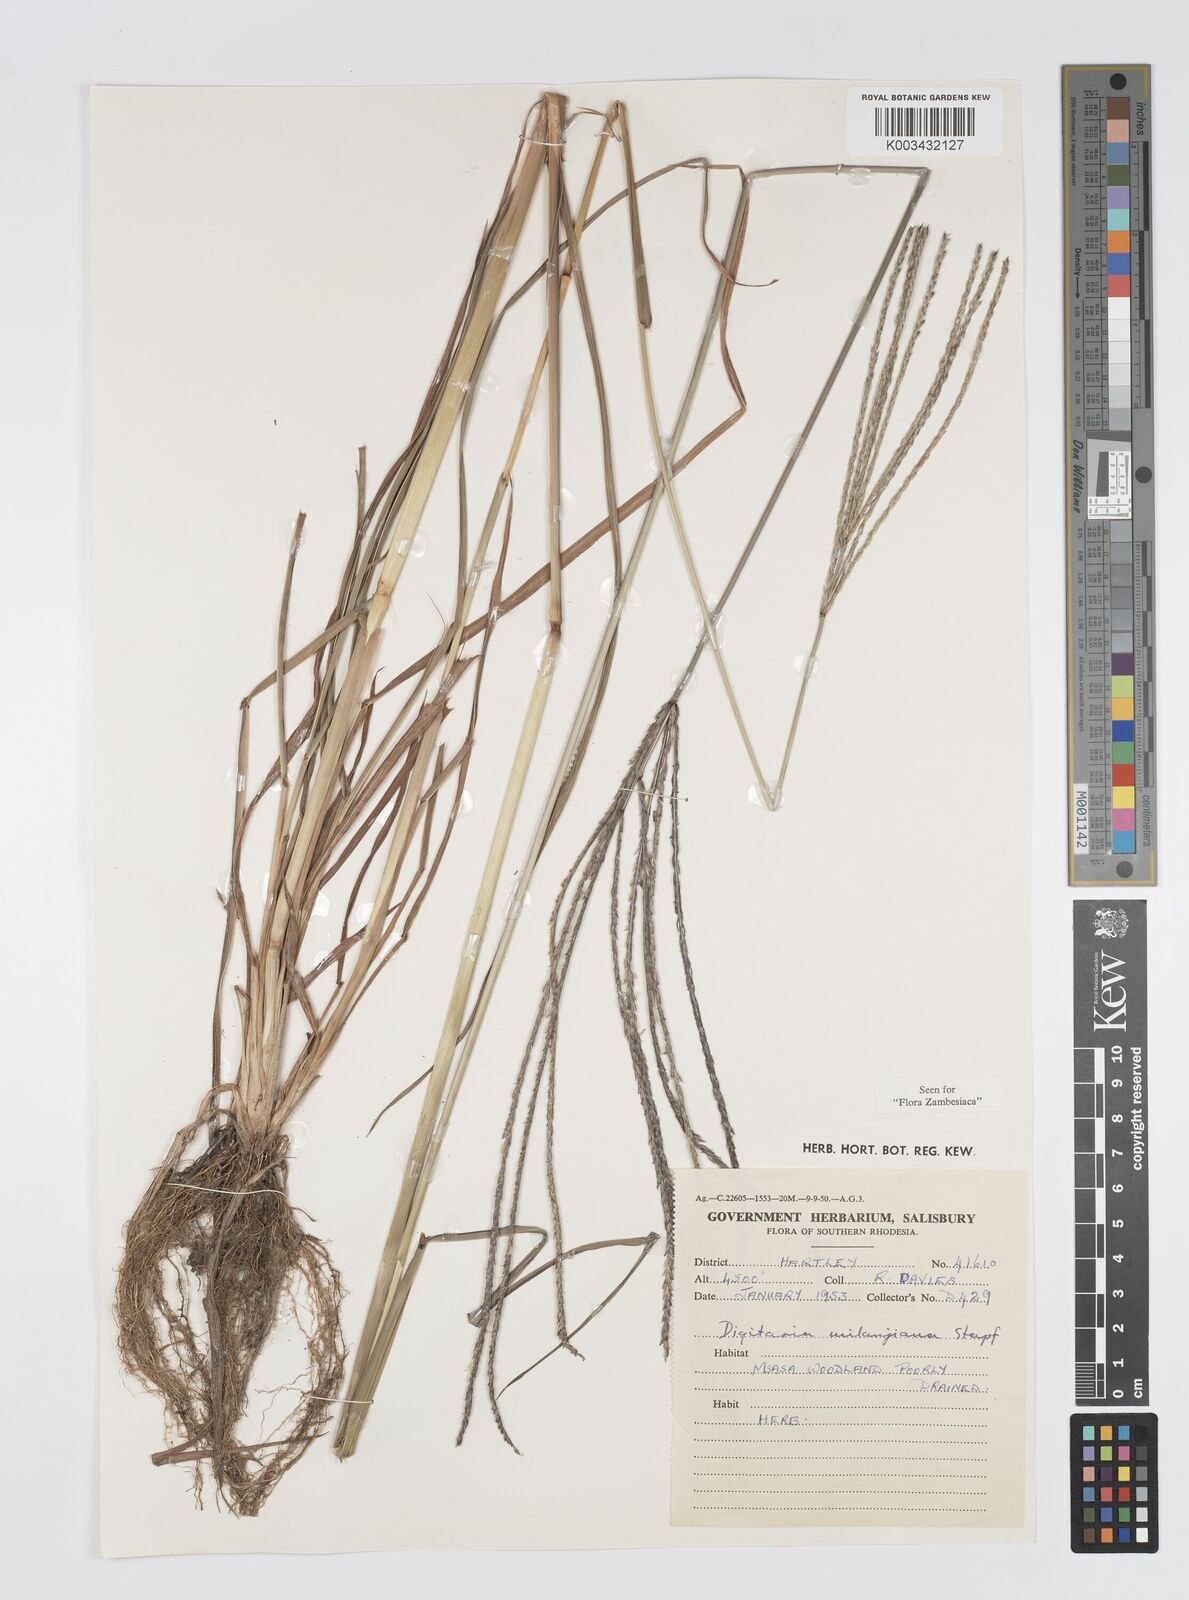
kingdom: Plantae
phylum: Tracheophyta
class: Liliopsida
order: Poales
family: Poaceae
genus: Digitaria
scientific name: Digitaria milanjiana
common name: Madagascar crabgrass
